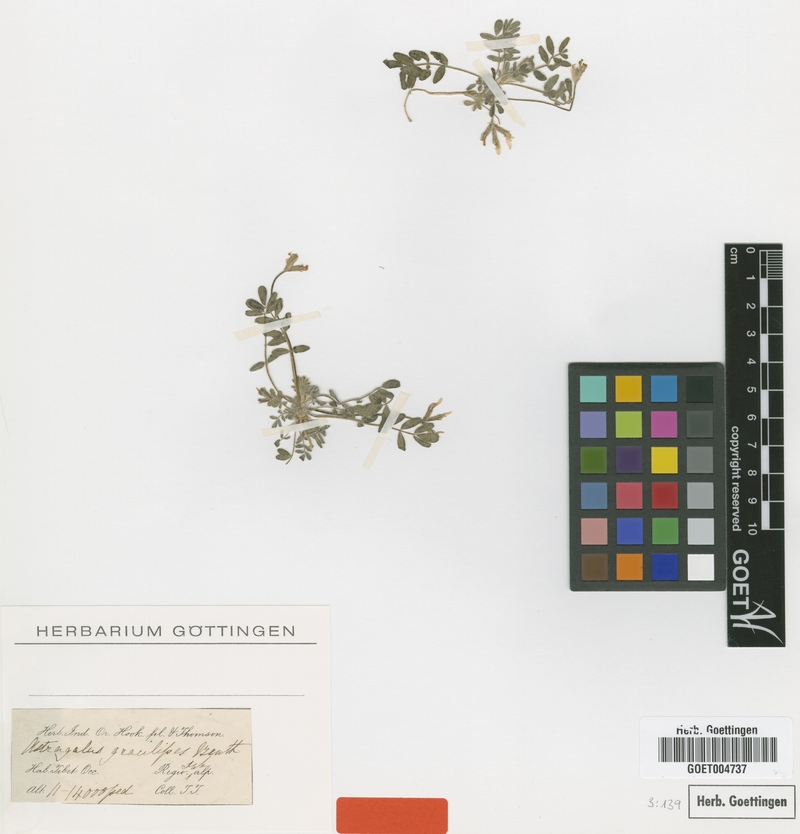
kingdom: Plantae
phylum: Tracheophyta
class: Magnoliopsida
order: Fabales
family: Fabaceae
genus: Astragalus
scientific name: Astragalus gracilipes
